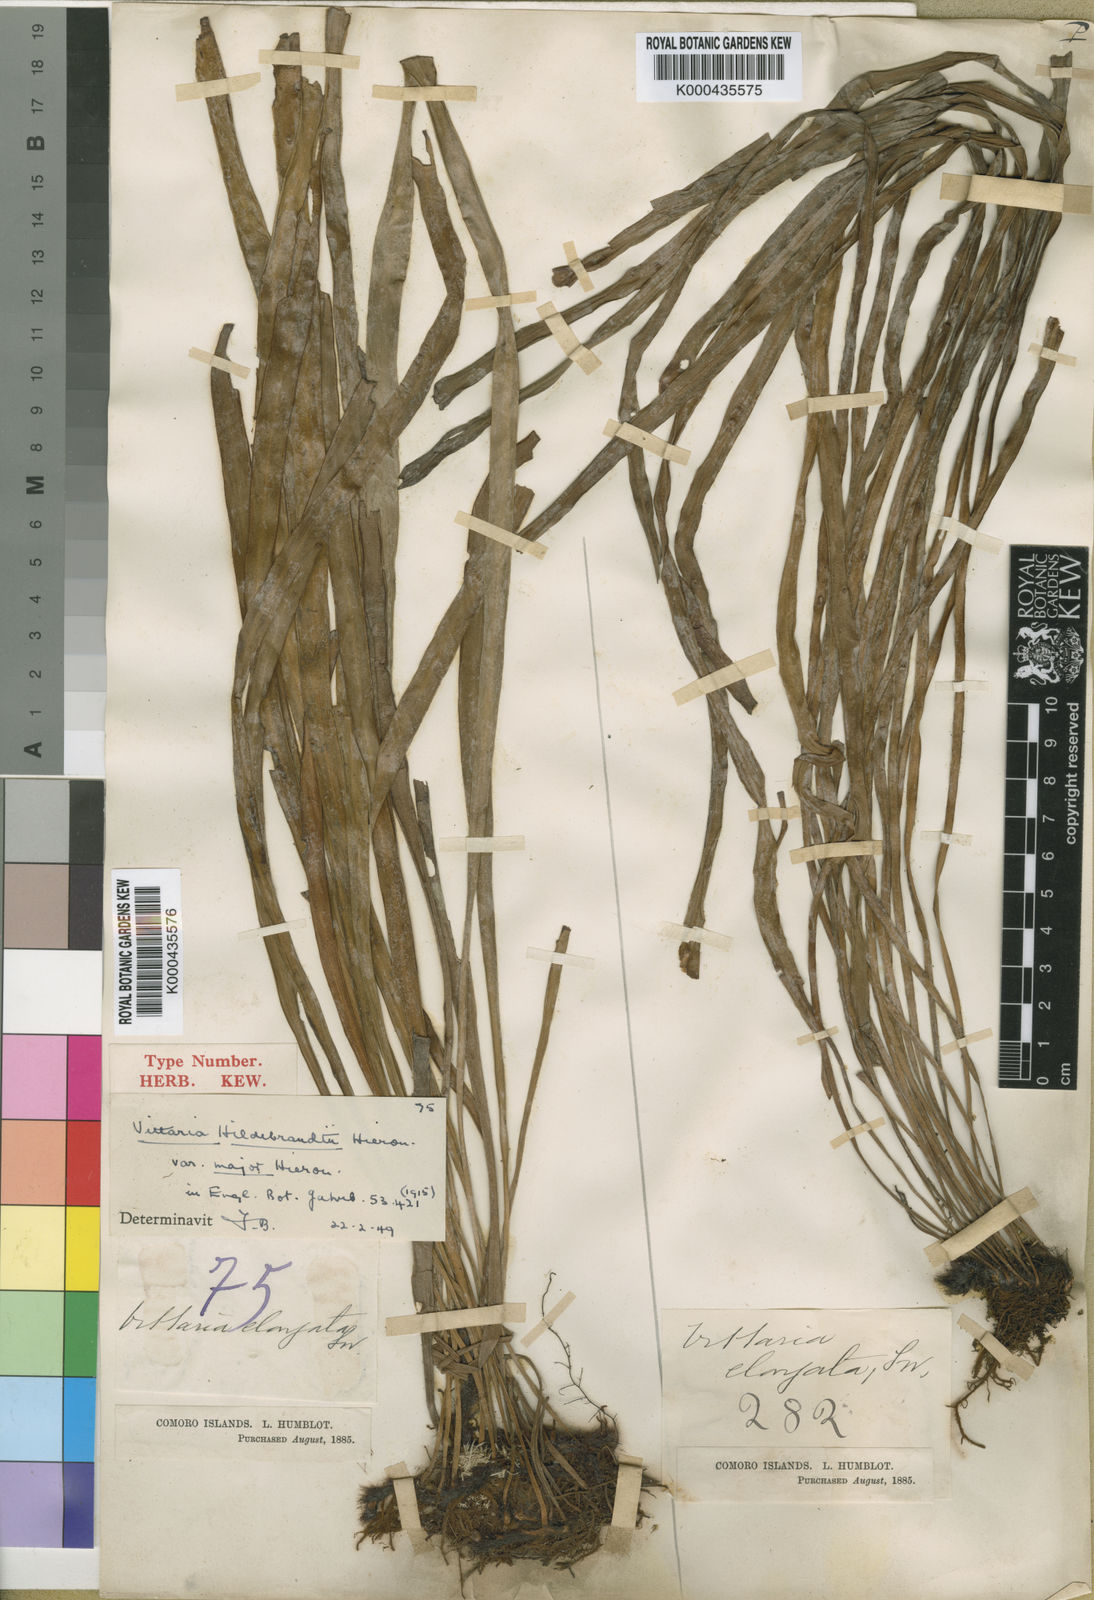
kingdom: Plantae
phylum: Tracheophyta
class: Polypodiopsida
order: Polypodiales
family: Pteridaceae
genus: Haplopteris
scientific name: Haplopteris elongata
